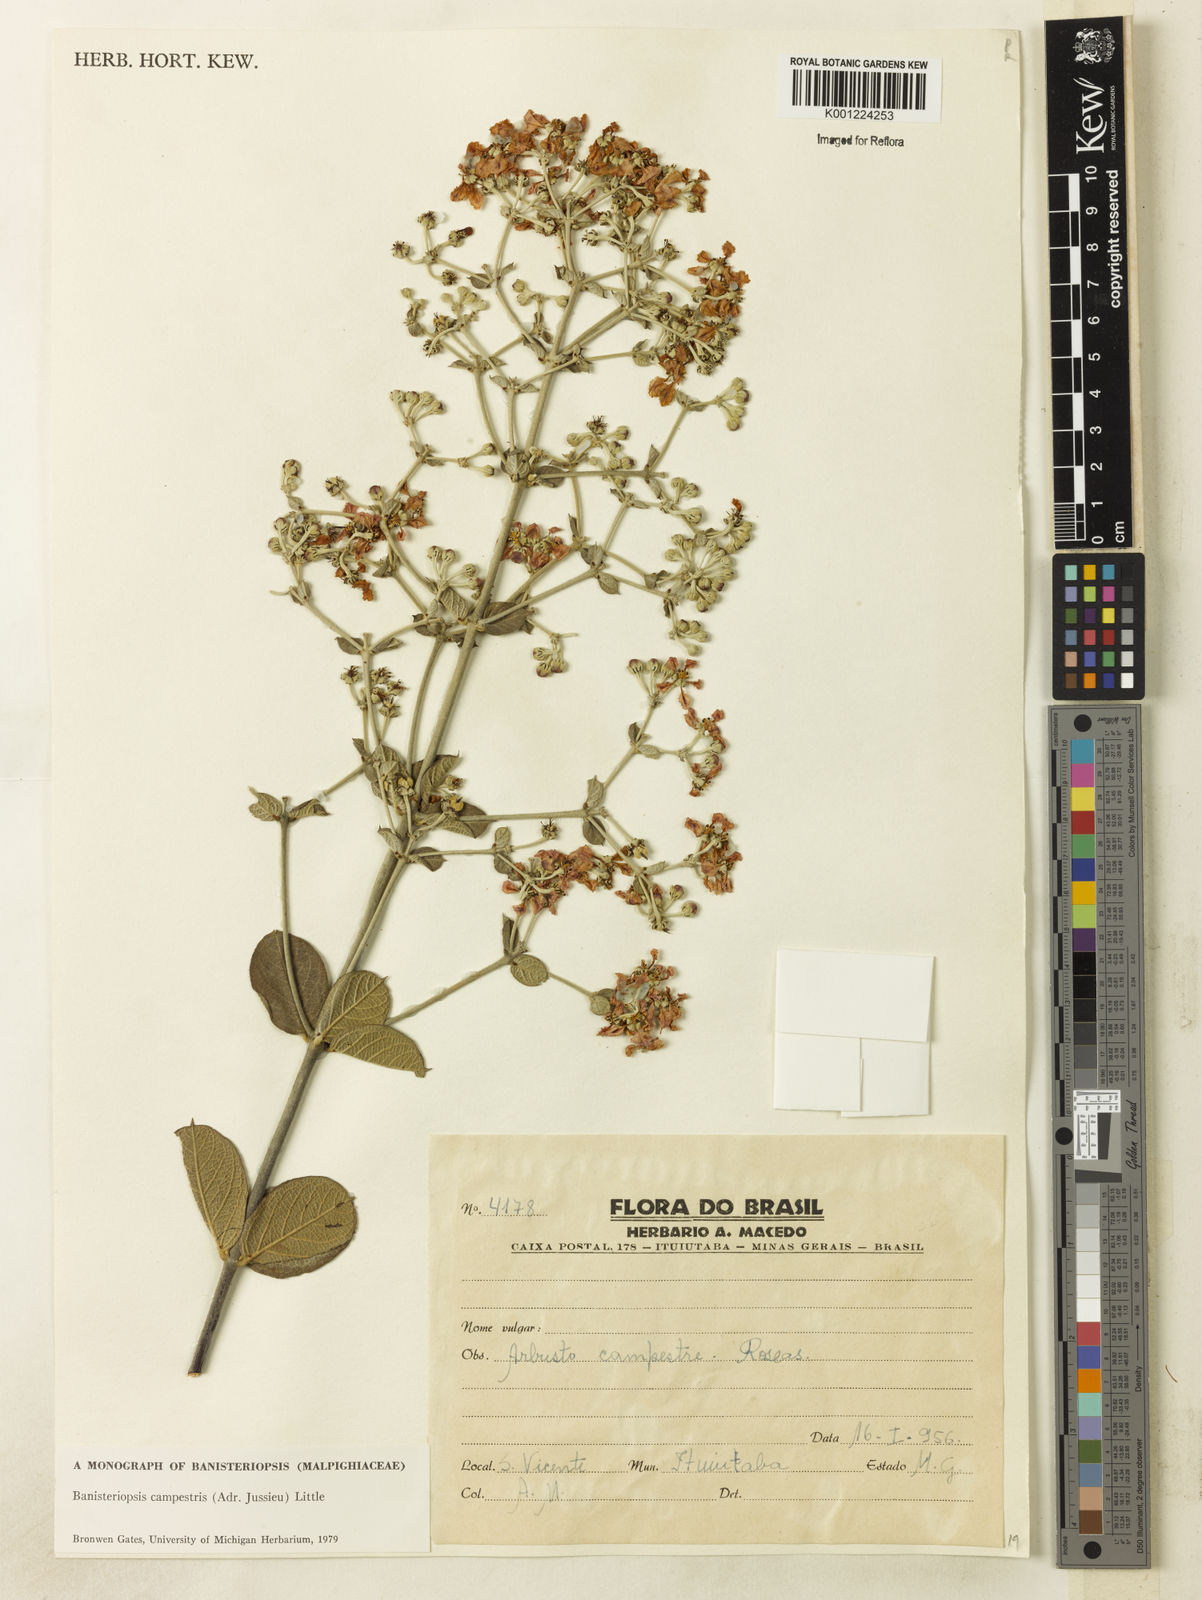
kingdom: Plantae
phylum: Tracheophyta
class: Magnoliopsida
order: Malpighiales
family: Malpighiaceae
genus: Banisteriopsis
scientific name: Banisteriopsis campestris
